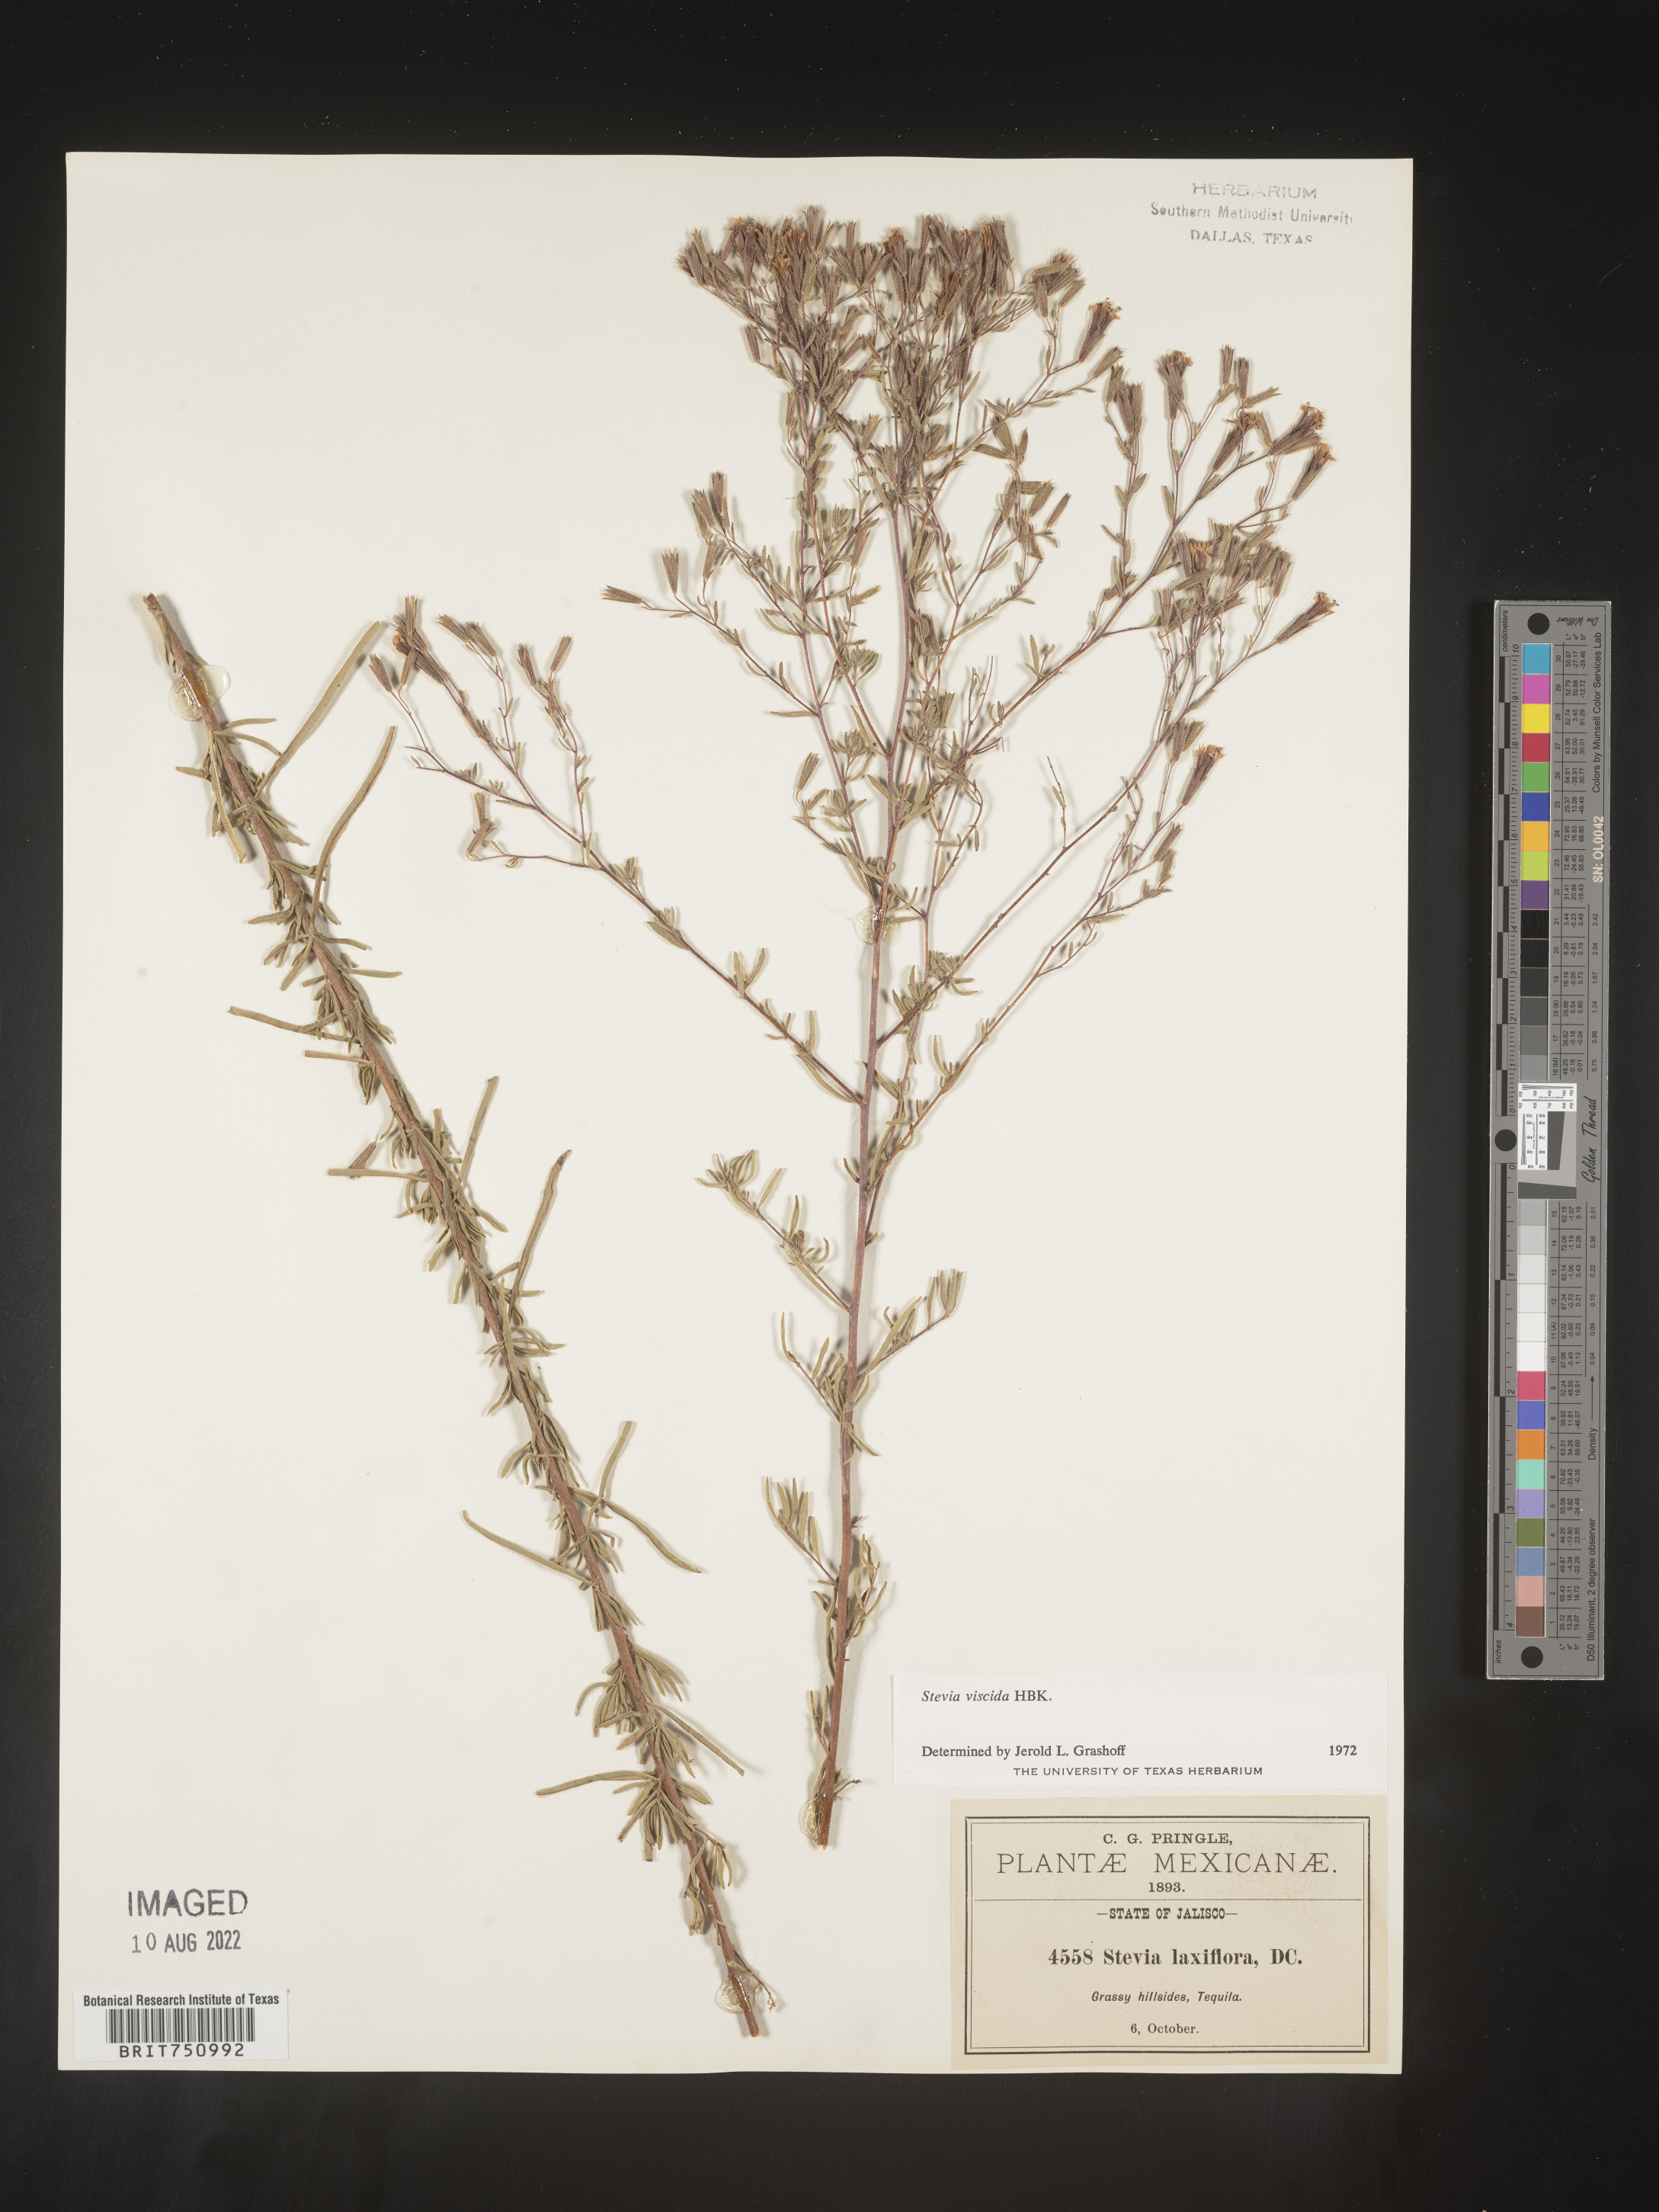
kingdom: Plantae
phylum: Tracheophyta
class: Magnoliopsida
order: Asterales
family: Asteraceae
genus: Stevia
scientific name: Stevia viscida
